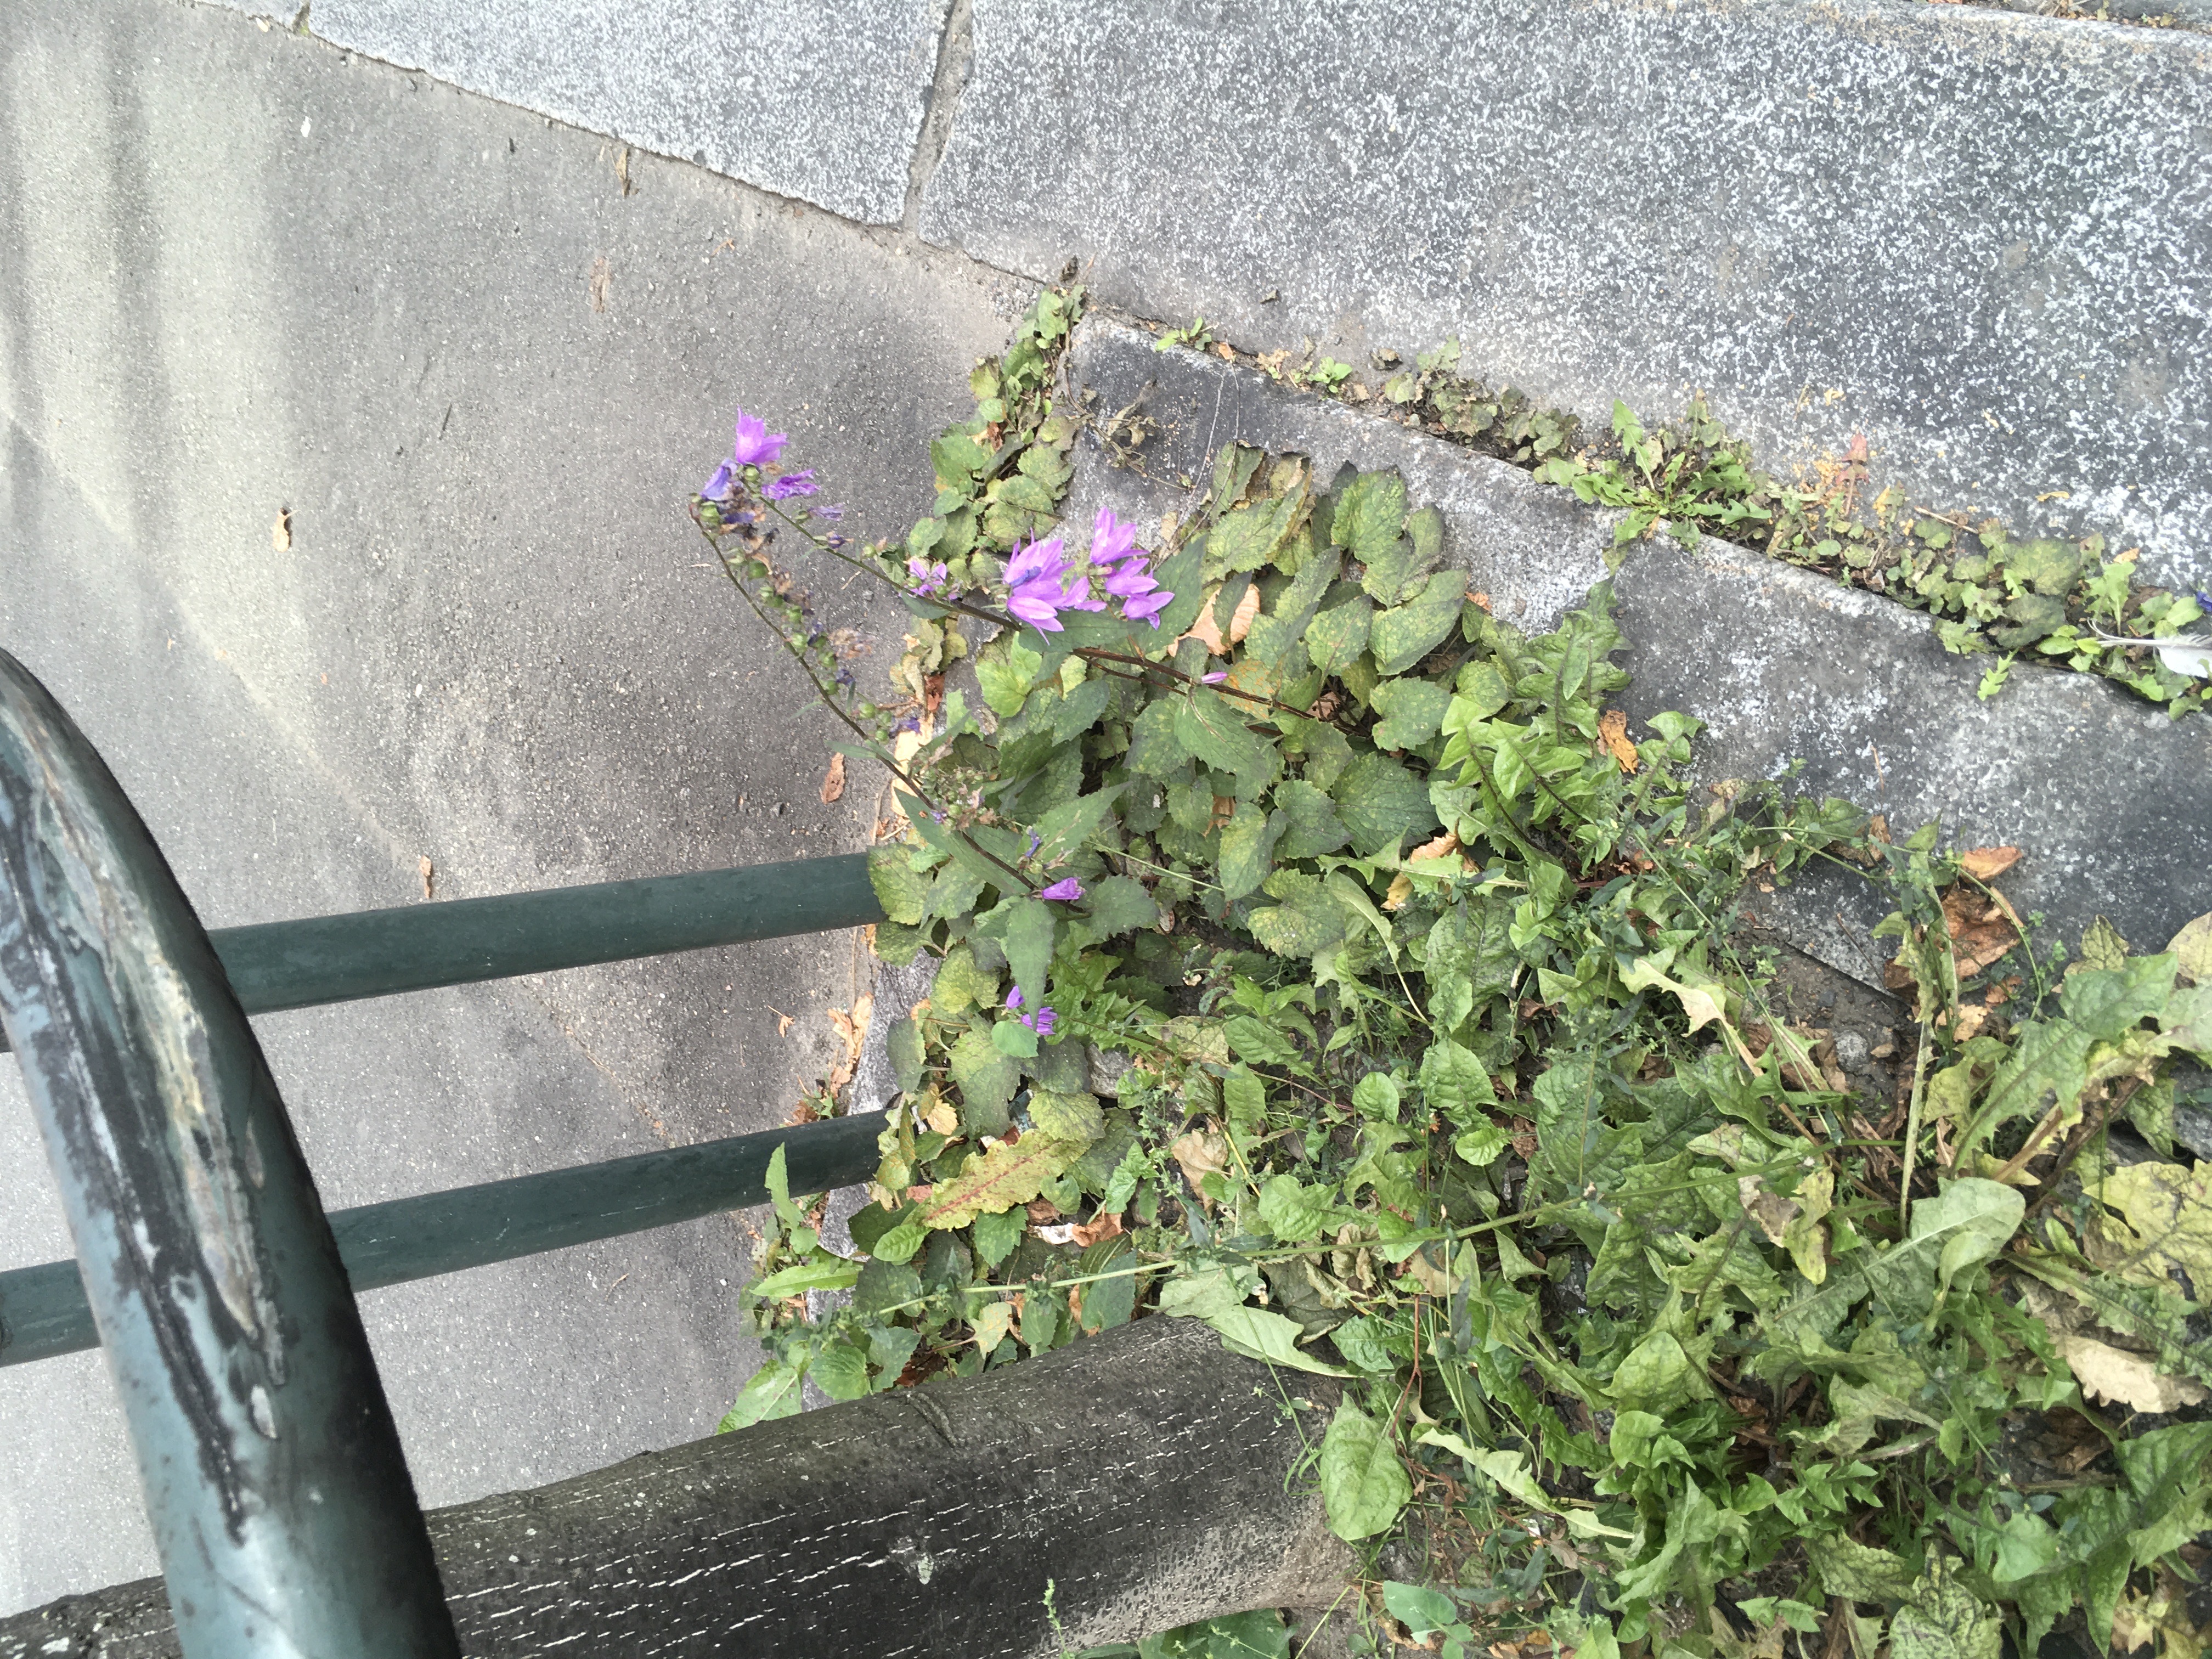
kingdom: Plantae
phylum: Tracheophyta
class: Magnoliopsida
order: Asterales
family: Campanulaceae
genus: Campanula
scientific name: Campanula rapunculoides
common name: ugrasklokke
